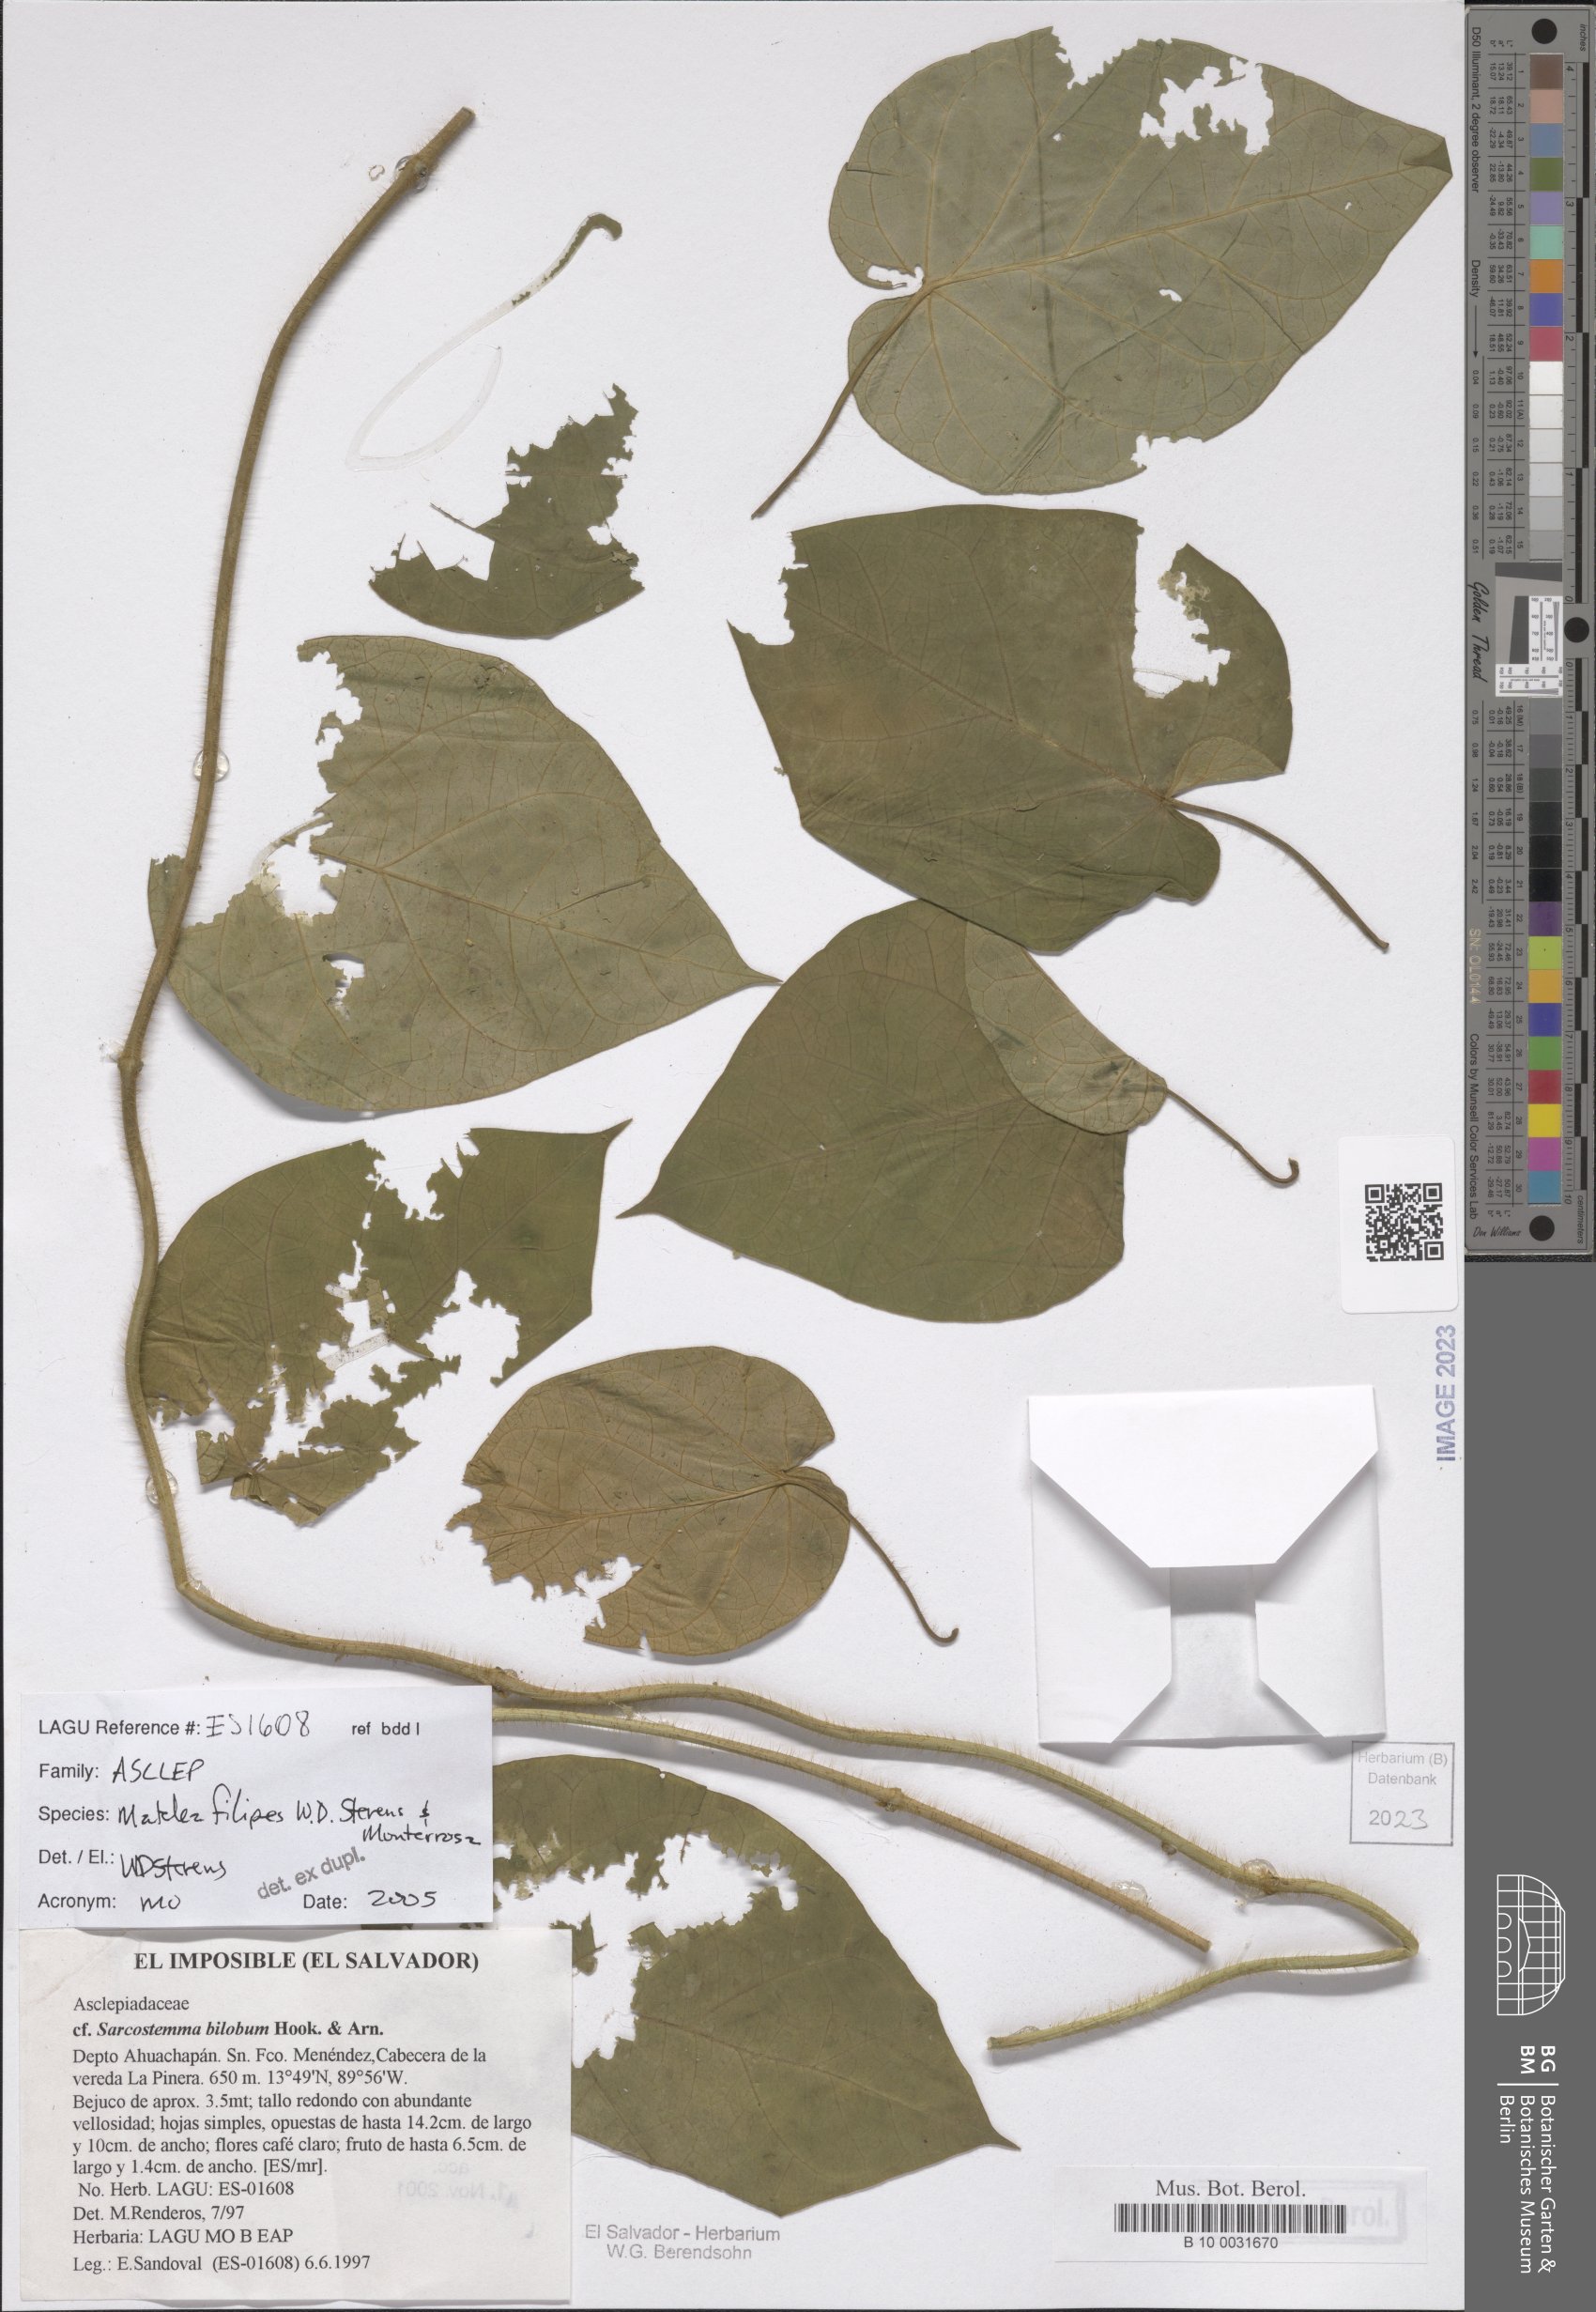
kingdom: Plantae
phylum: Tracheophyta
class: Magnoliopsida
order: Gentianales
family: Apocynaceae
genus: Matelea
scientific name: Matelea filipes
